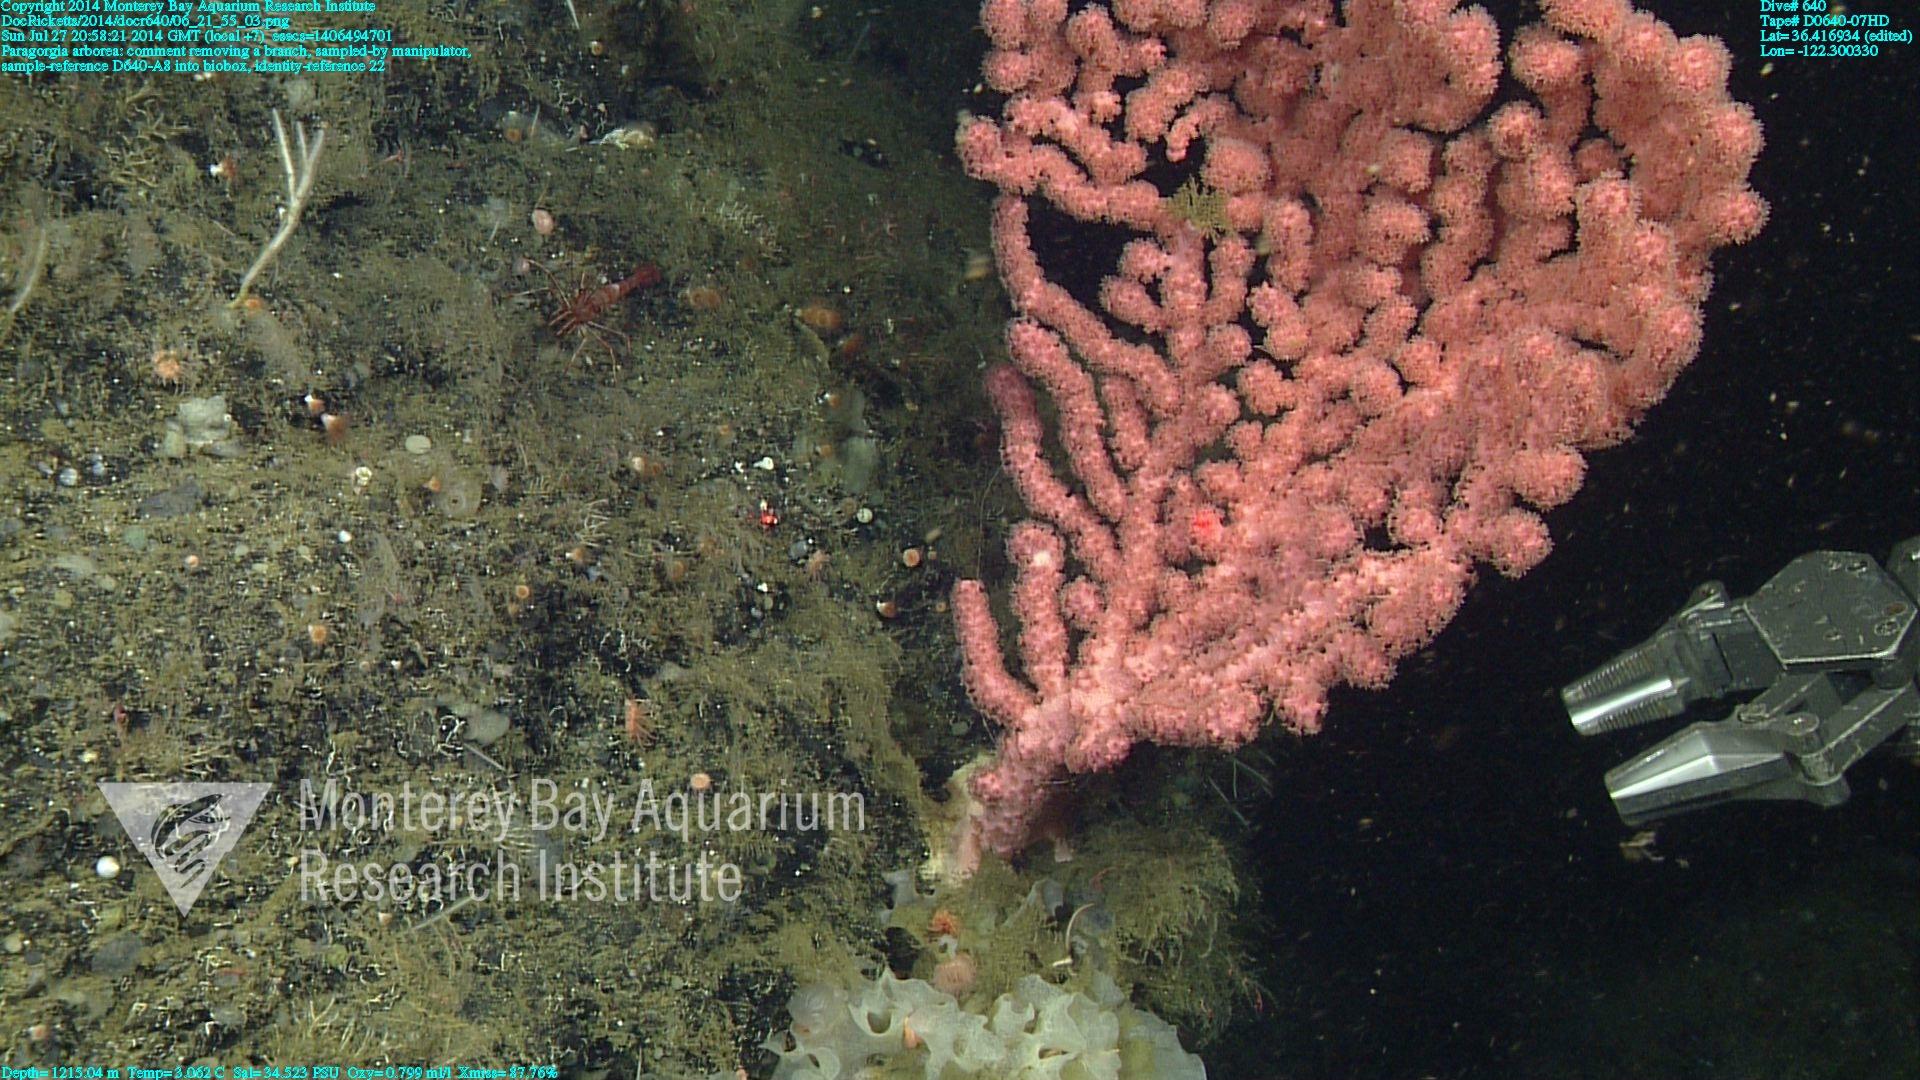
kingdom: Animalia
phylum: Cnidaria
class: Anthozoa
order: Scleralcyonacea
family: Coralliidae
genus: Paragorgia
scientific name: Paragorgia arborea
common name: Bubble gum coral
